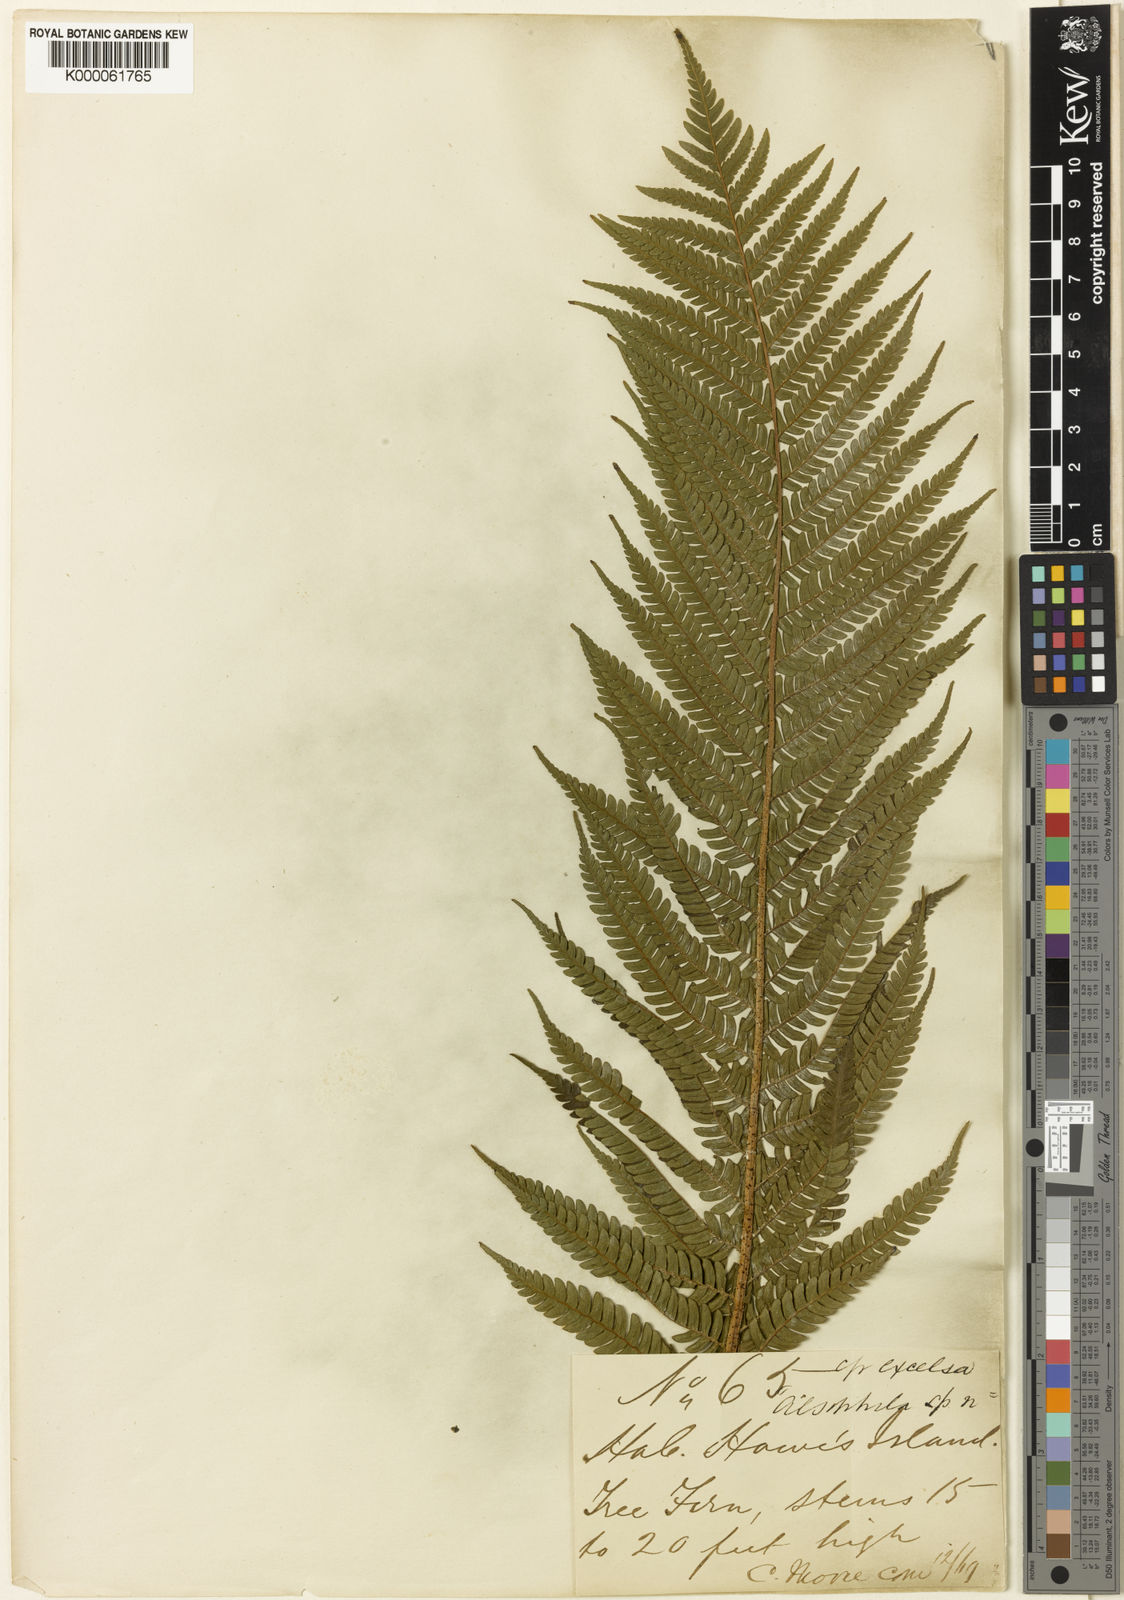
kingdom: Plantae
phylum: Tracheophyta
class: Polypodiopsida
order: Cyatheales
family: Cyatheaceae
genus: Sphaeropteris
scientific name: Sphaeropteris robusta
